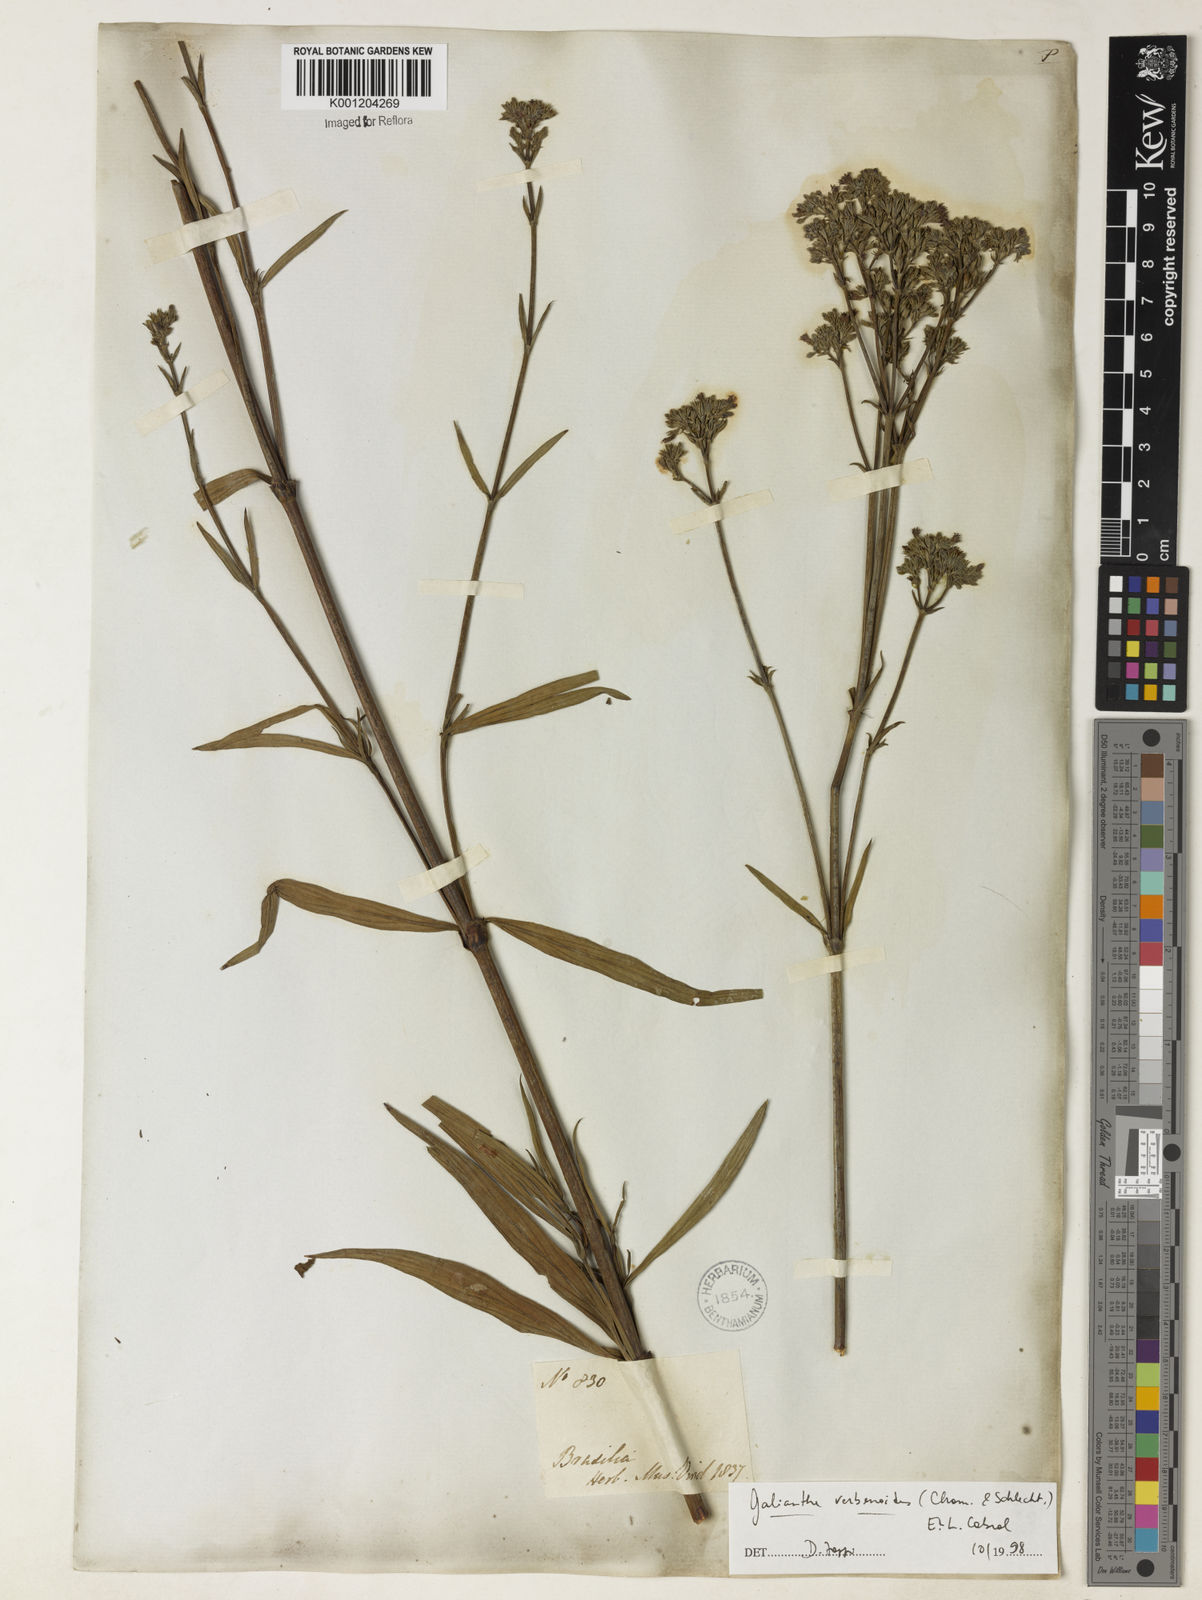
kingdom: Plantae
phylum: Tracheophyta
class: Magnoliopsida
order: Gentianales
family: Rubiaceae
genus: Galianthe
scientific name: Galianthe verbenoides
